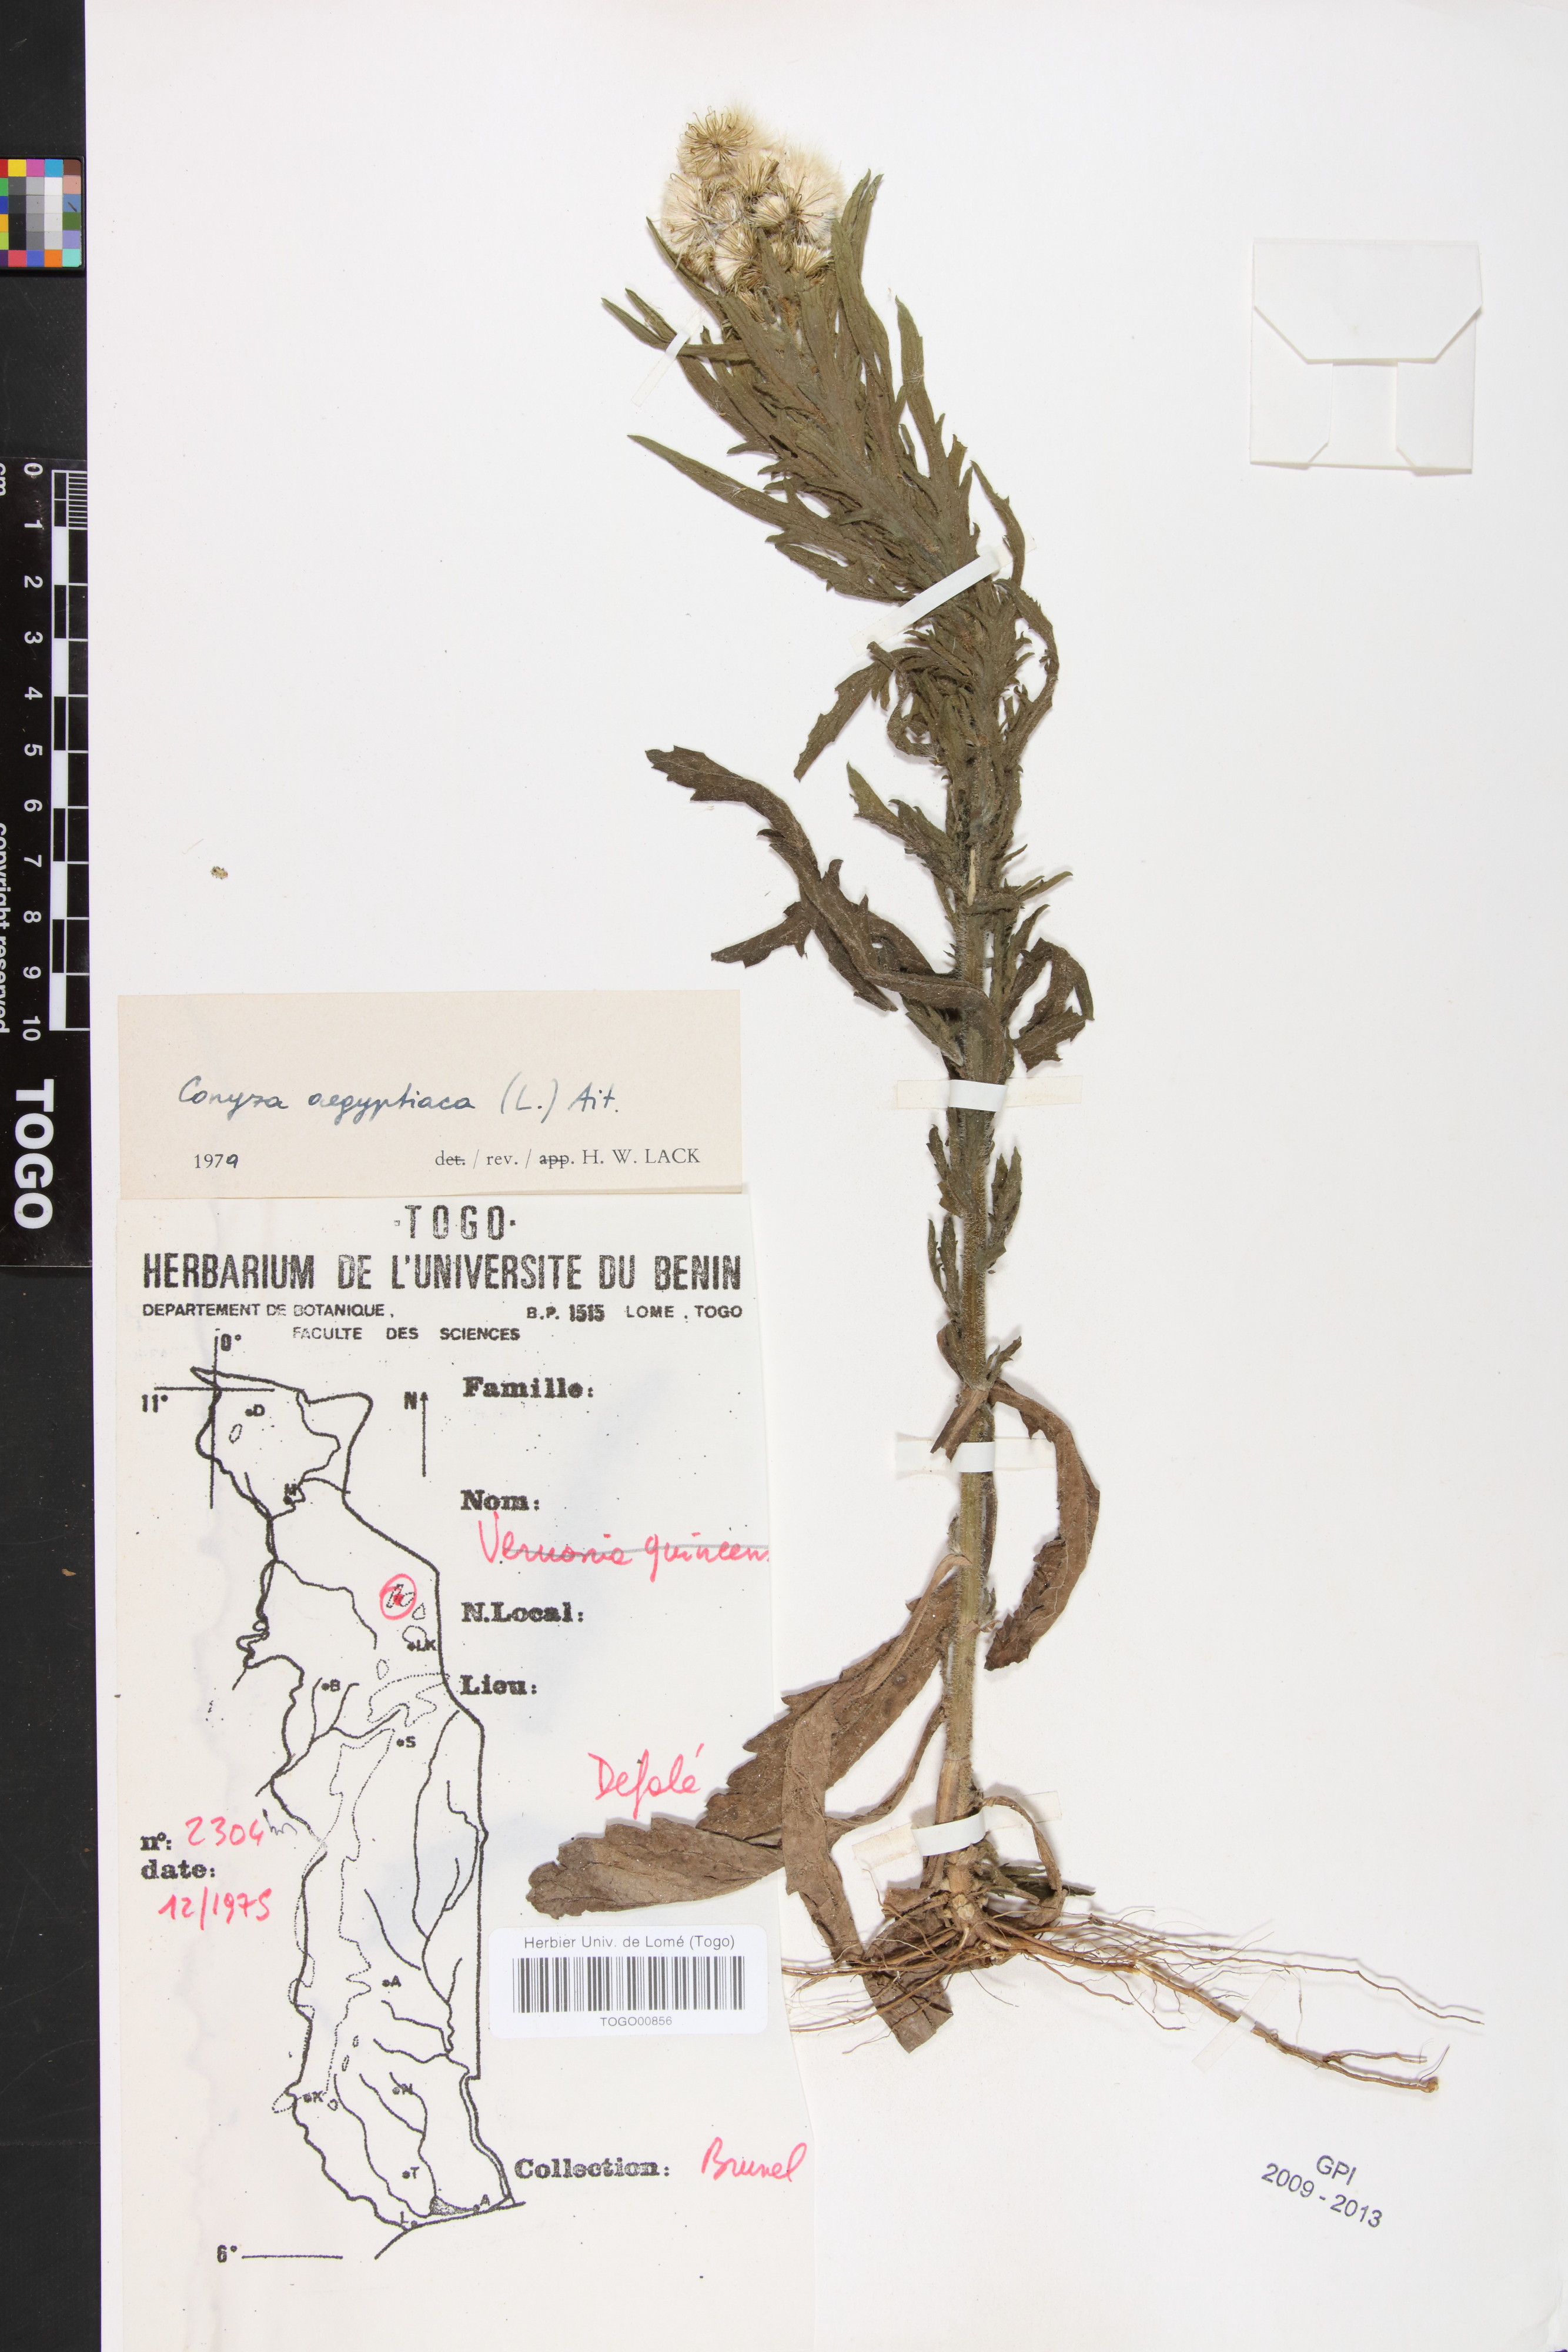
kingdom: Plantae
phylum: Tracheophyta
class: Magnoliopsida
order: Asterales
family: Asteraceae
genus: Nidorella
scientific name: Nidorella aegyptiaca
